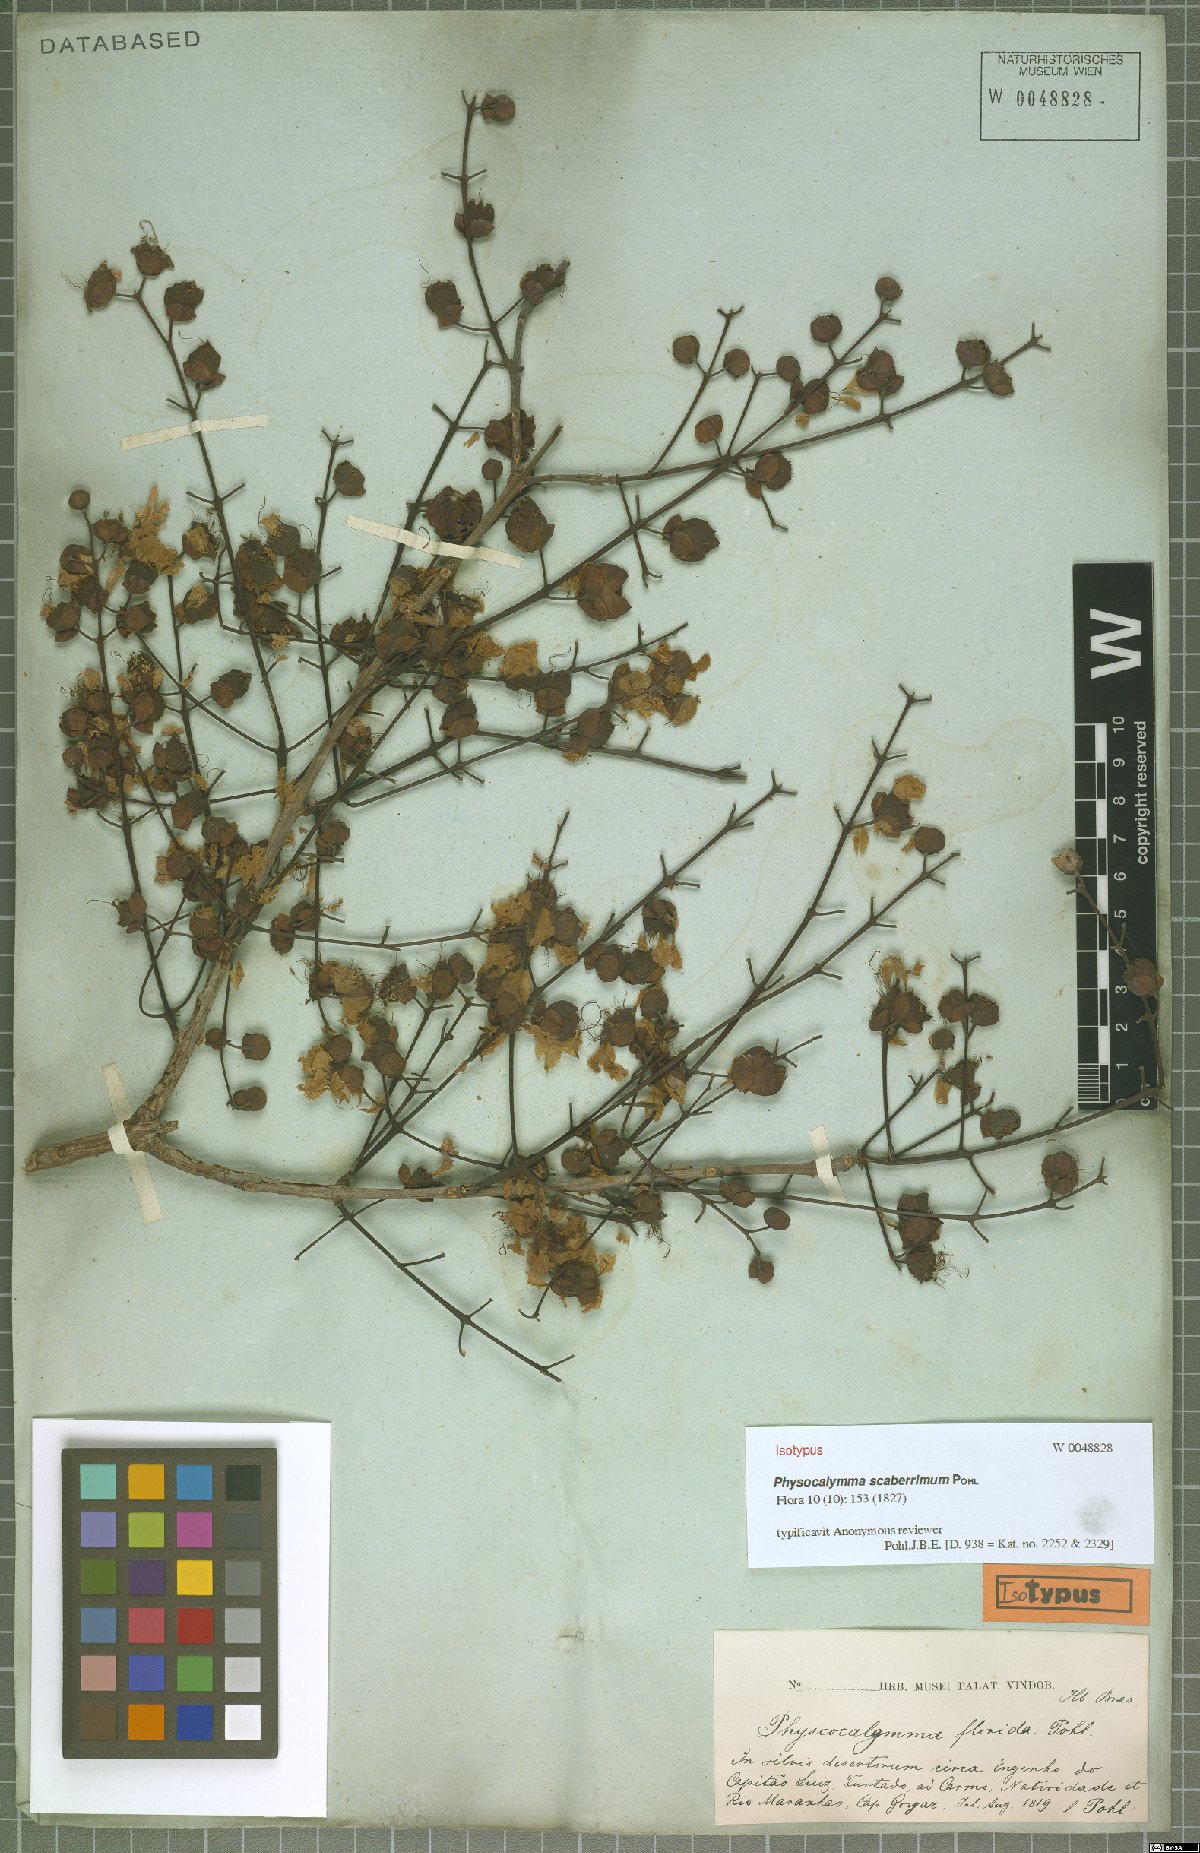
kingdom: Plantae
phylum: Tracheophyta
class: Magnoliopsida
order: Myrtales
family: Lythraceae
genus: Physocalymma
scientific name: Physocalymma scaberrimum
